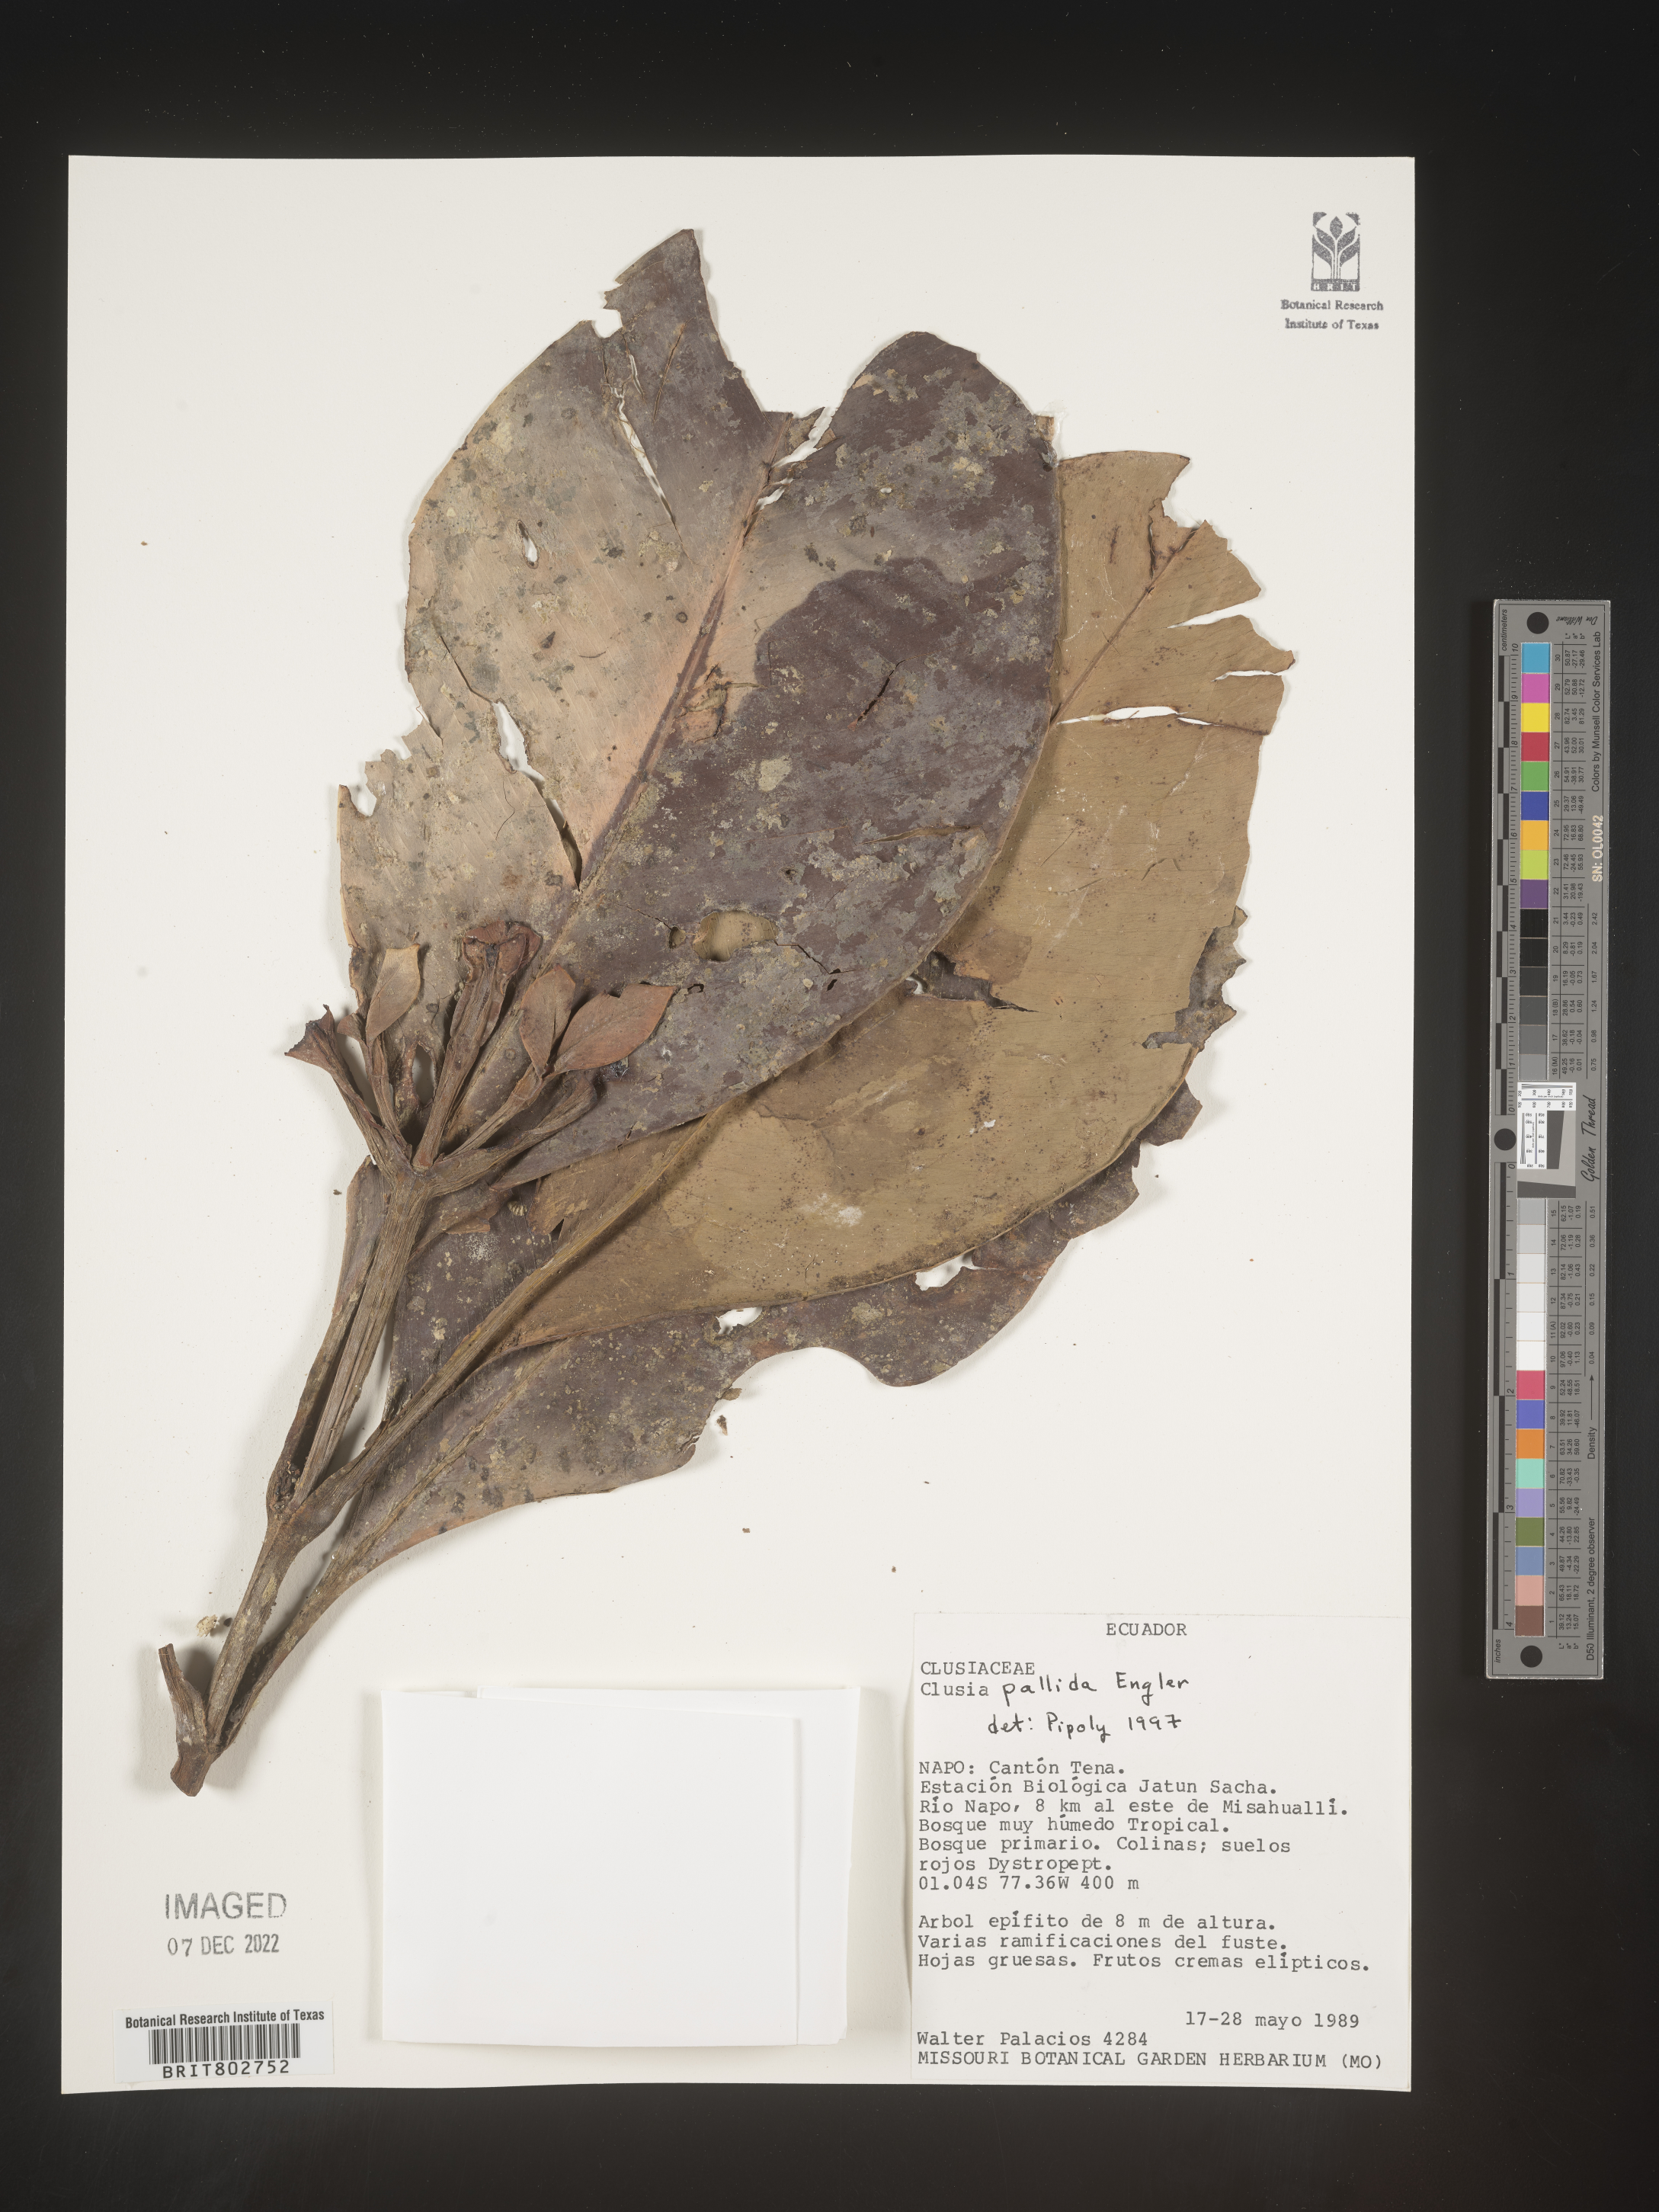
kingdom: Plantae
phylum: Tracheophyta
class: Magnoliopsida
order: Malpighiales
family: Clusiaceae
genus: Clusia
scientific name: Clusia pallida
